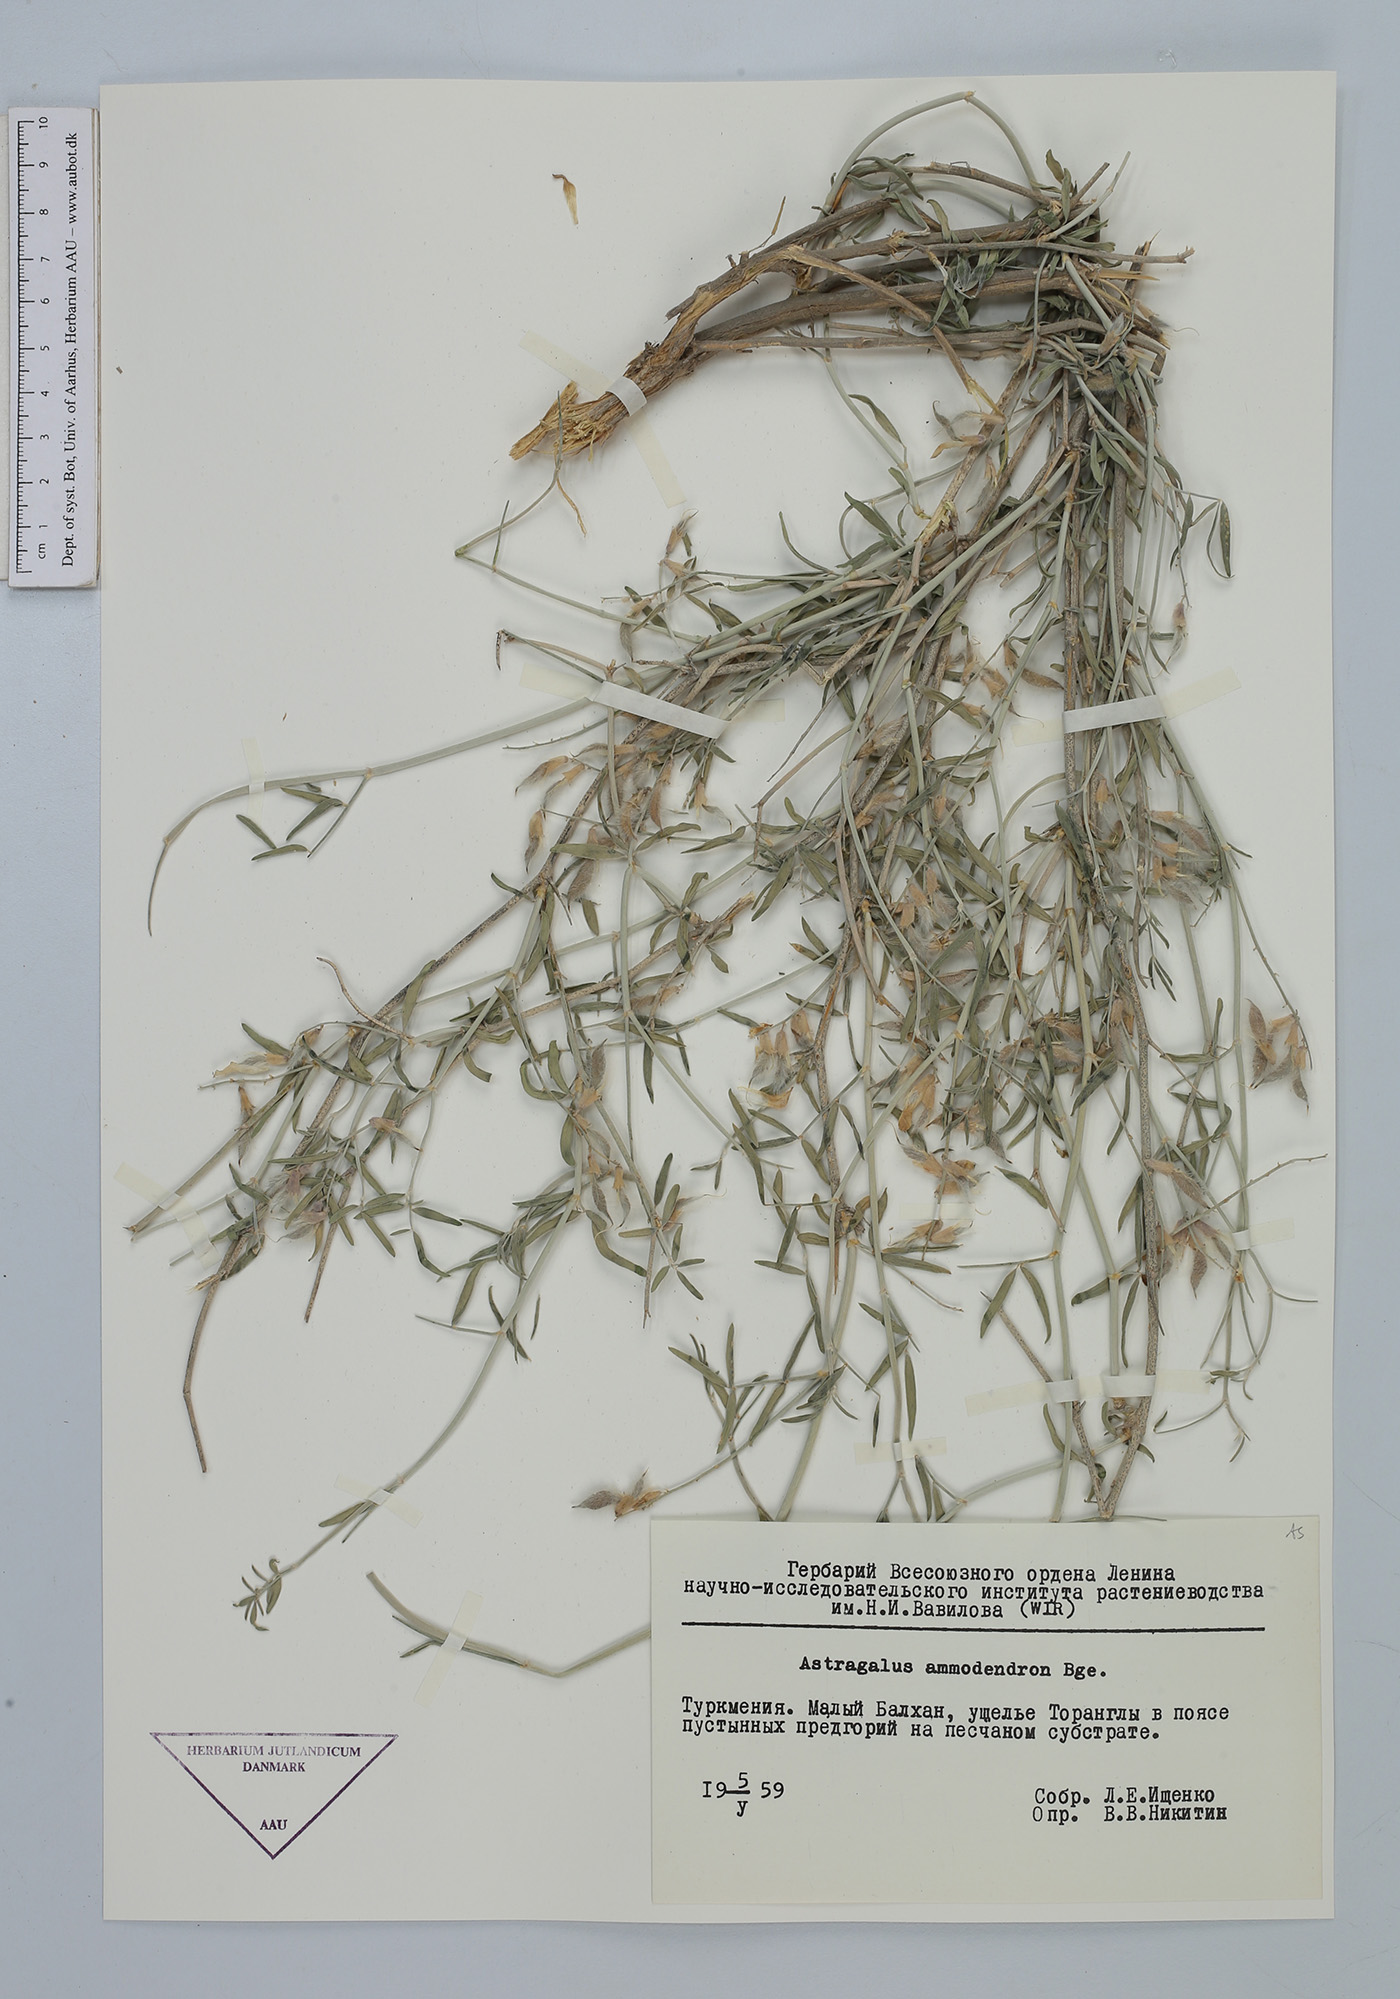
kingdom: Plantae
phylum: Tracheophyta
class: Magnoliopsida
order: Fabales
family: Fabaceae
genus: Astragalus
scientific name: Astragalus ammodendron
